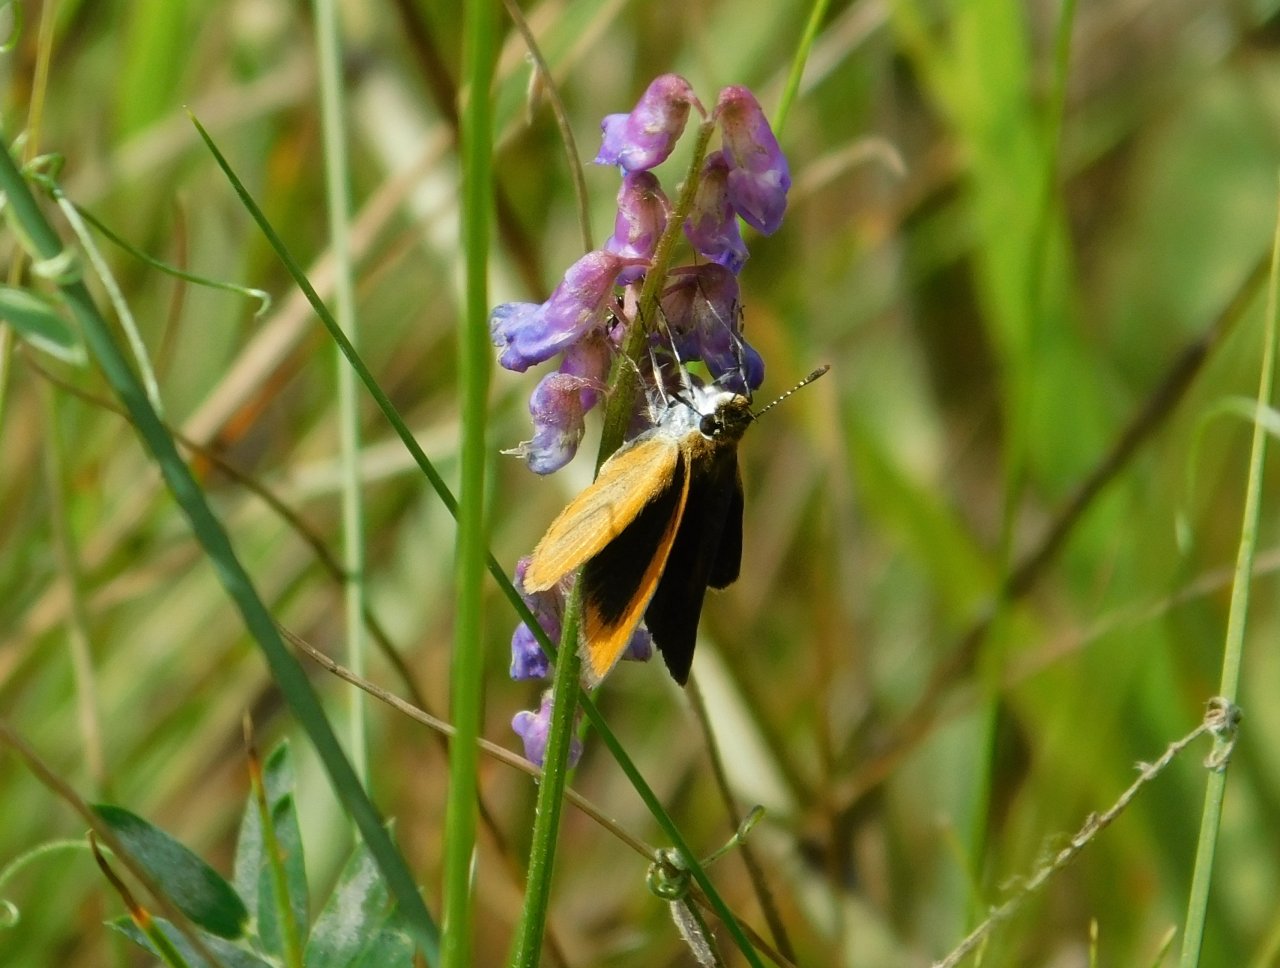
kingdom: Animalia
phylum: Arthropoda
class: Insecta
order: Lepidoptera
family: Hesperiidae
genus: Ancyloxypha
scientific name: Ancyloxypha numitor
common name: Least Skipper
